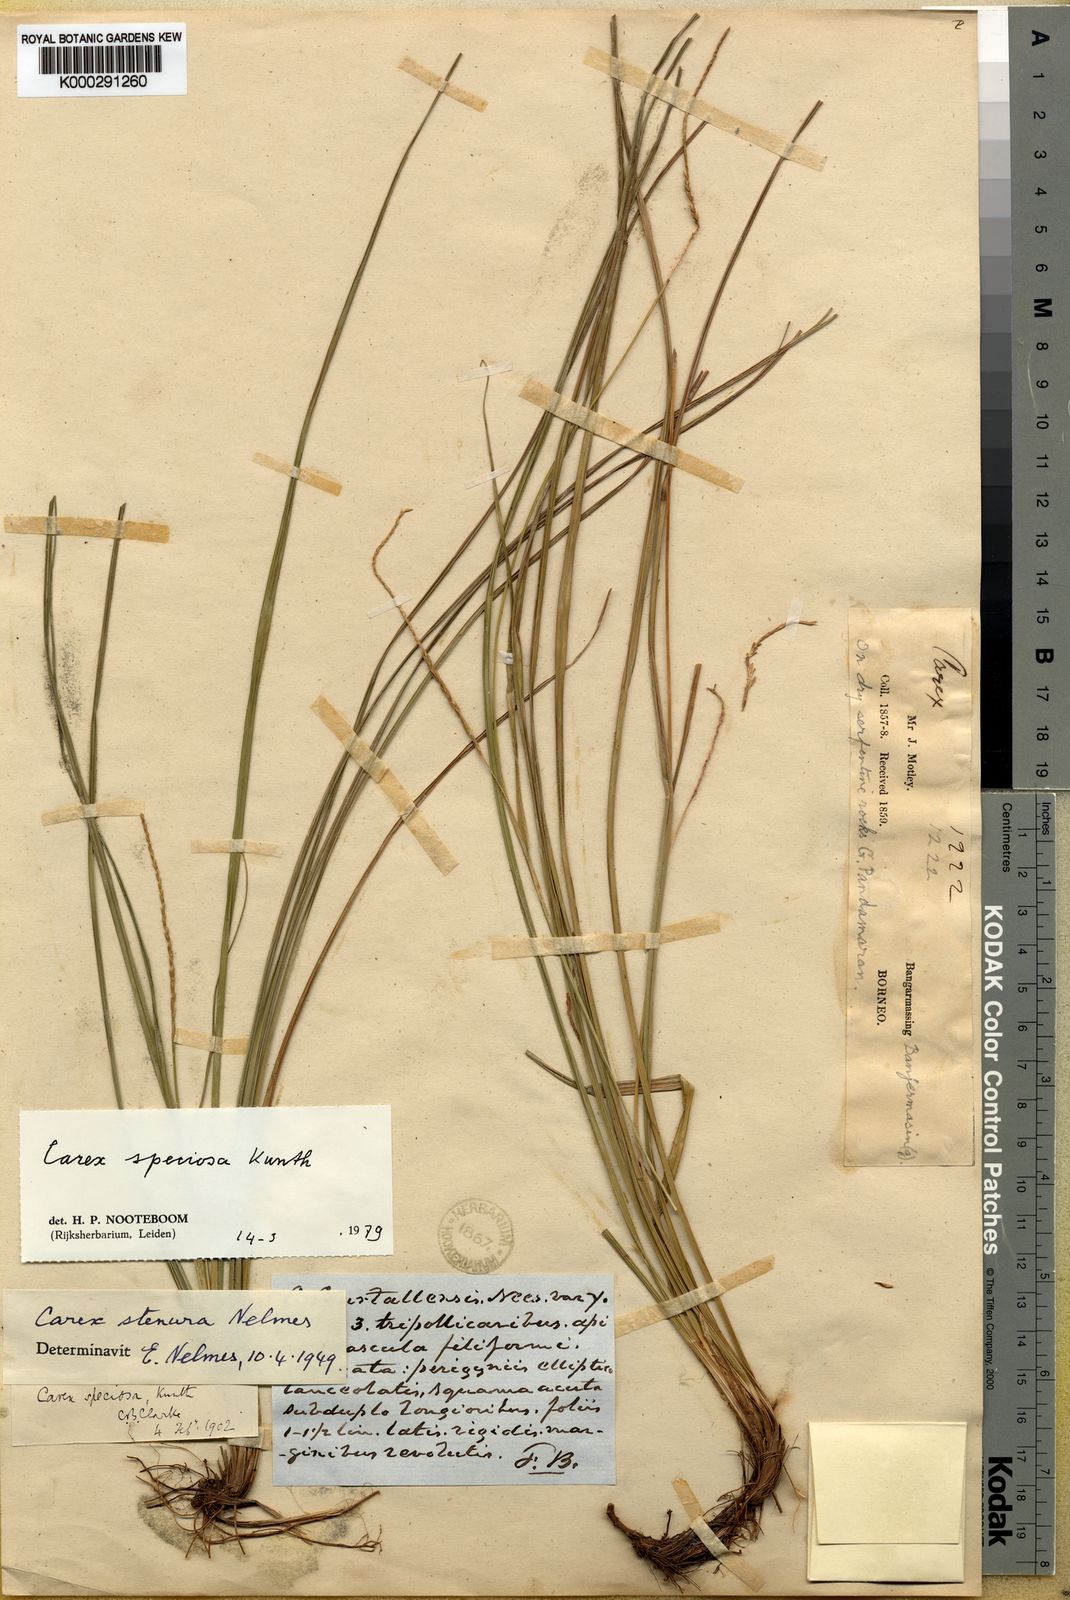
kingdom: Plantae
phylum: Tracheophyta
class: Liliopsida
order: Poales
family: Cyperaceae
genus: Carex
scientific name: Carex speciosa
